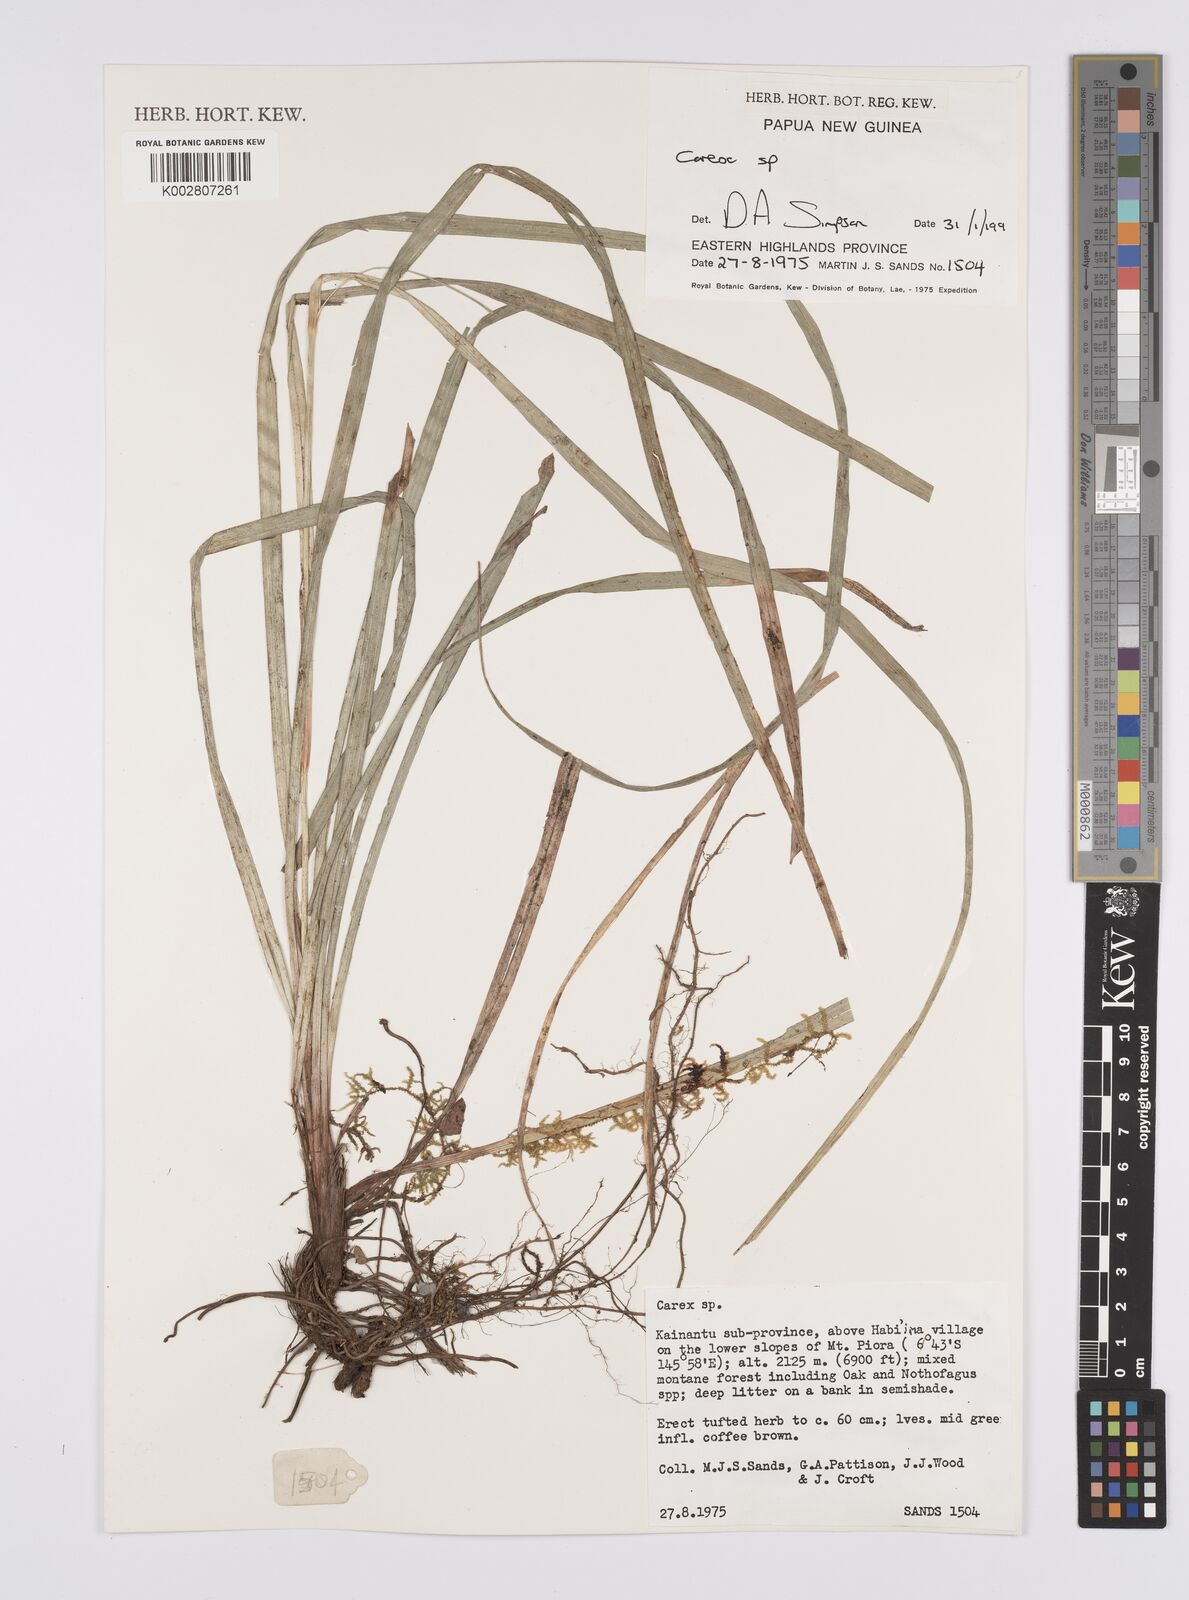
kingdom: Plantae
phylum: Tracheophyta
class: Liliopsida
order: Poales
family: Cyperaceae
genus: Carex
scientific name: Carex
